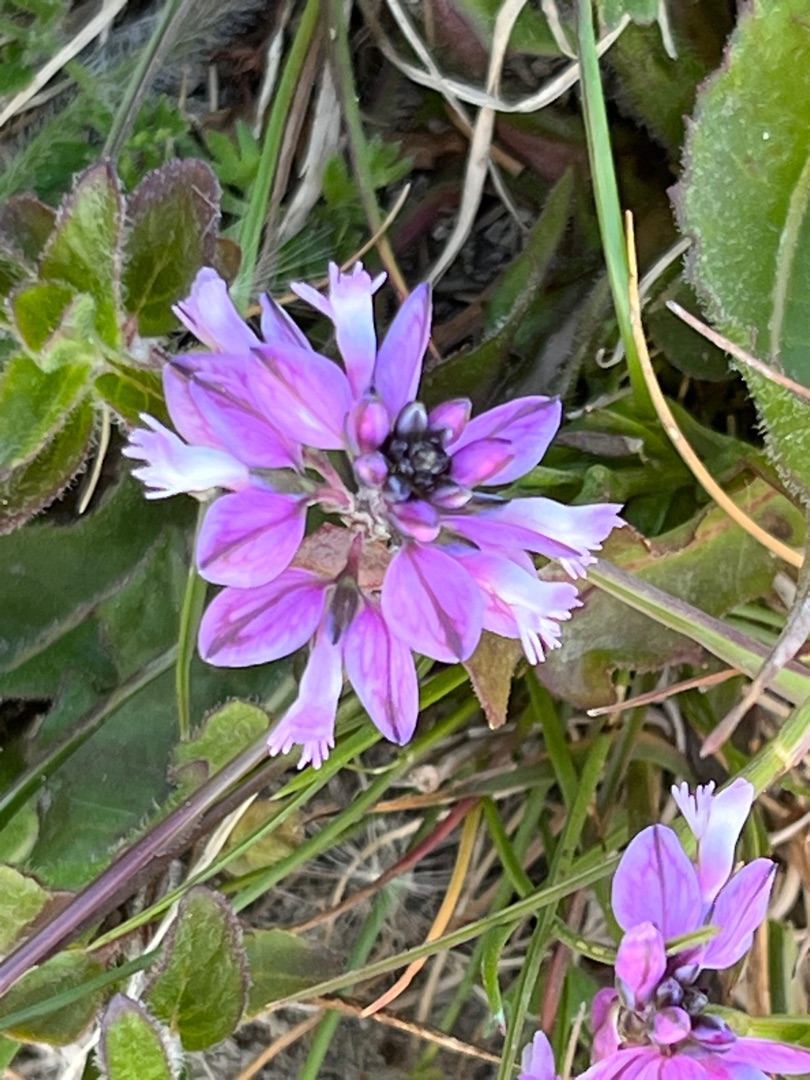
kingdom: Plantae
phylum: Tracheophyta
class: Magnoliopsida
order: Fabales
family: Polygalaceae
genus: Polygala
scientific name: Polygala vulgaris
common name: Almindelig mælkeurt
